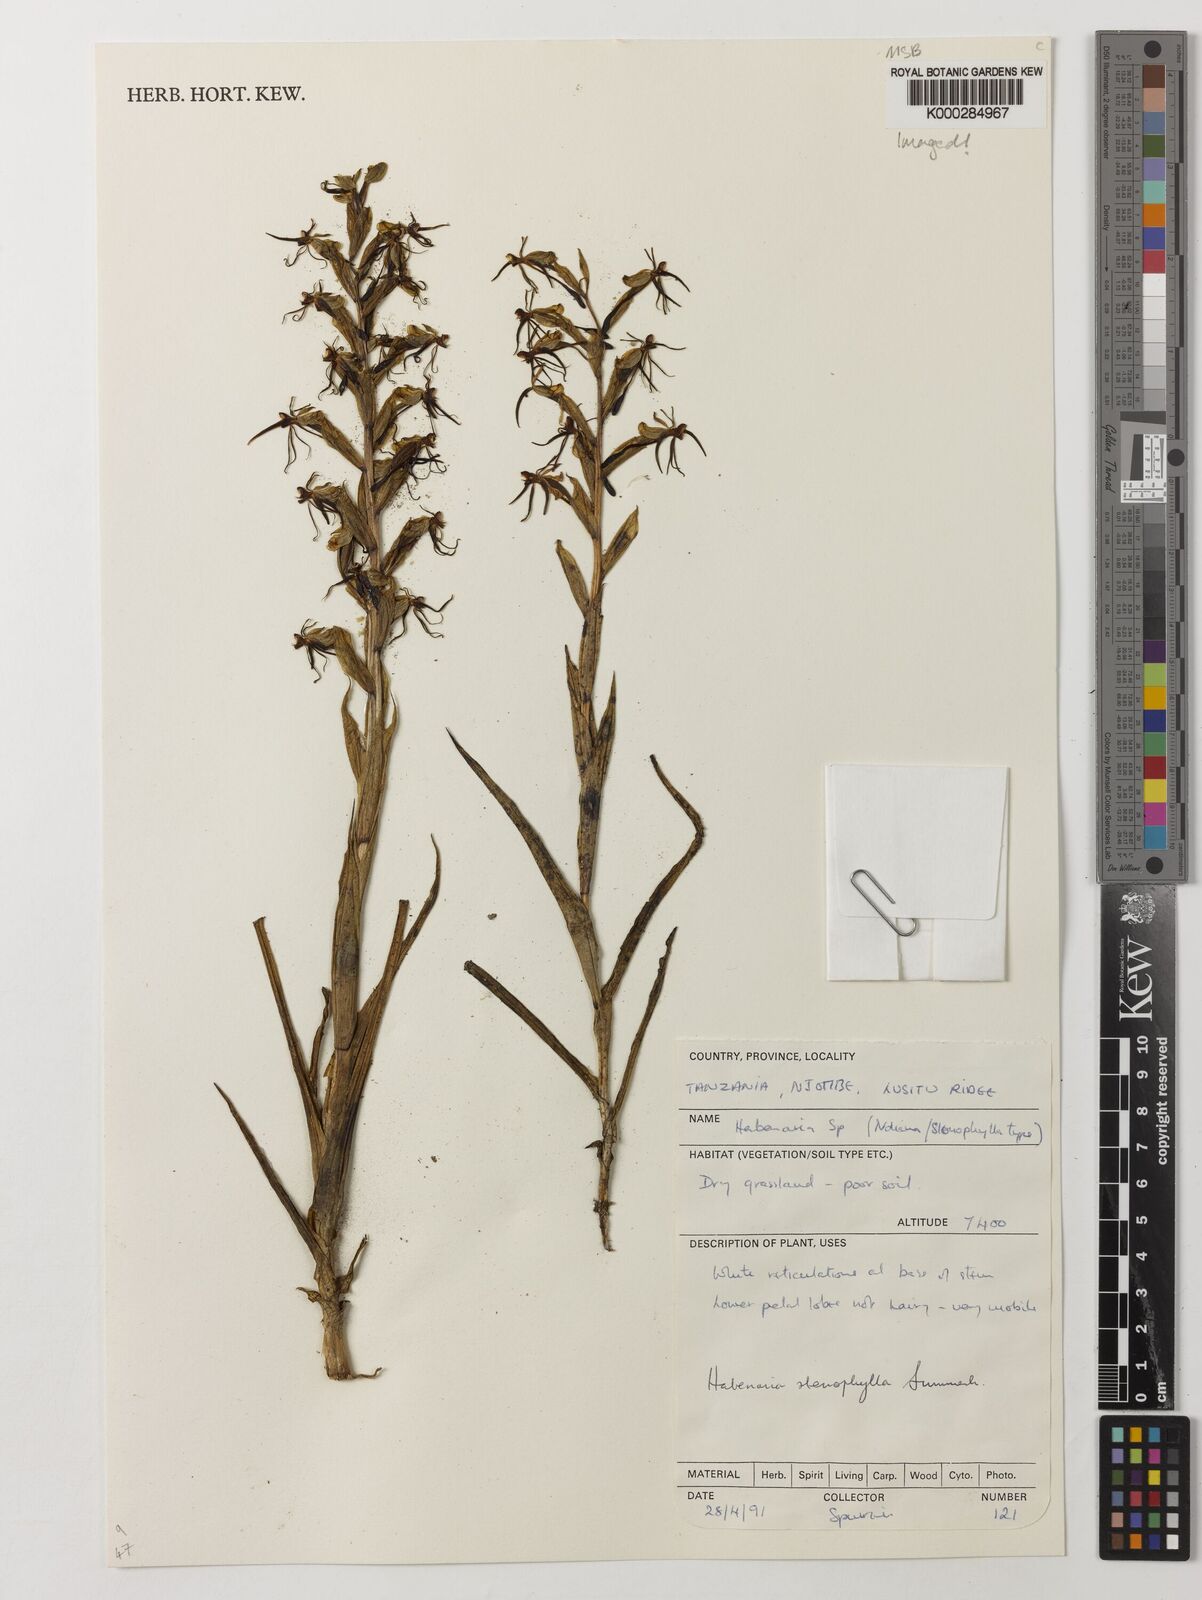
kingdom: Plantae
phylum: Tracheophyta
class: Liliopsida
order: Asparagales
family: Orchidaceae
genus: Habenaria
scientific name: Habenaria stenophylla
